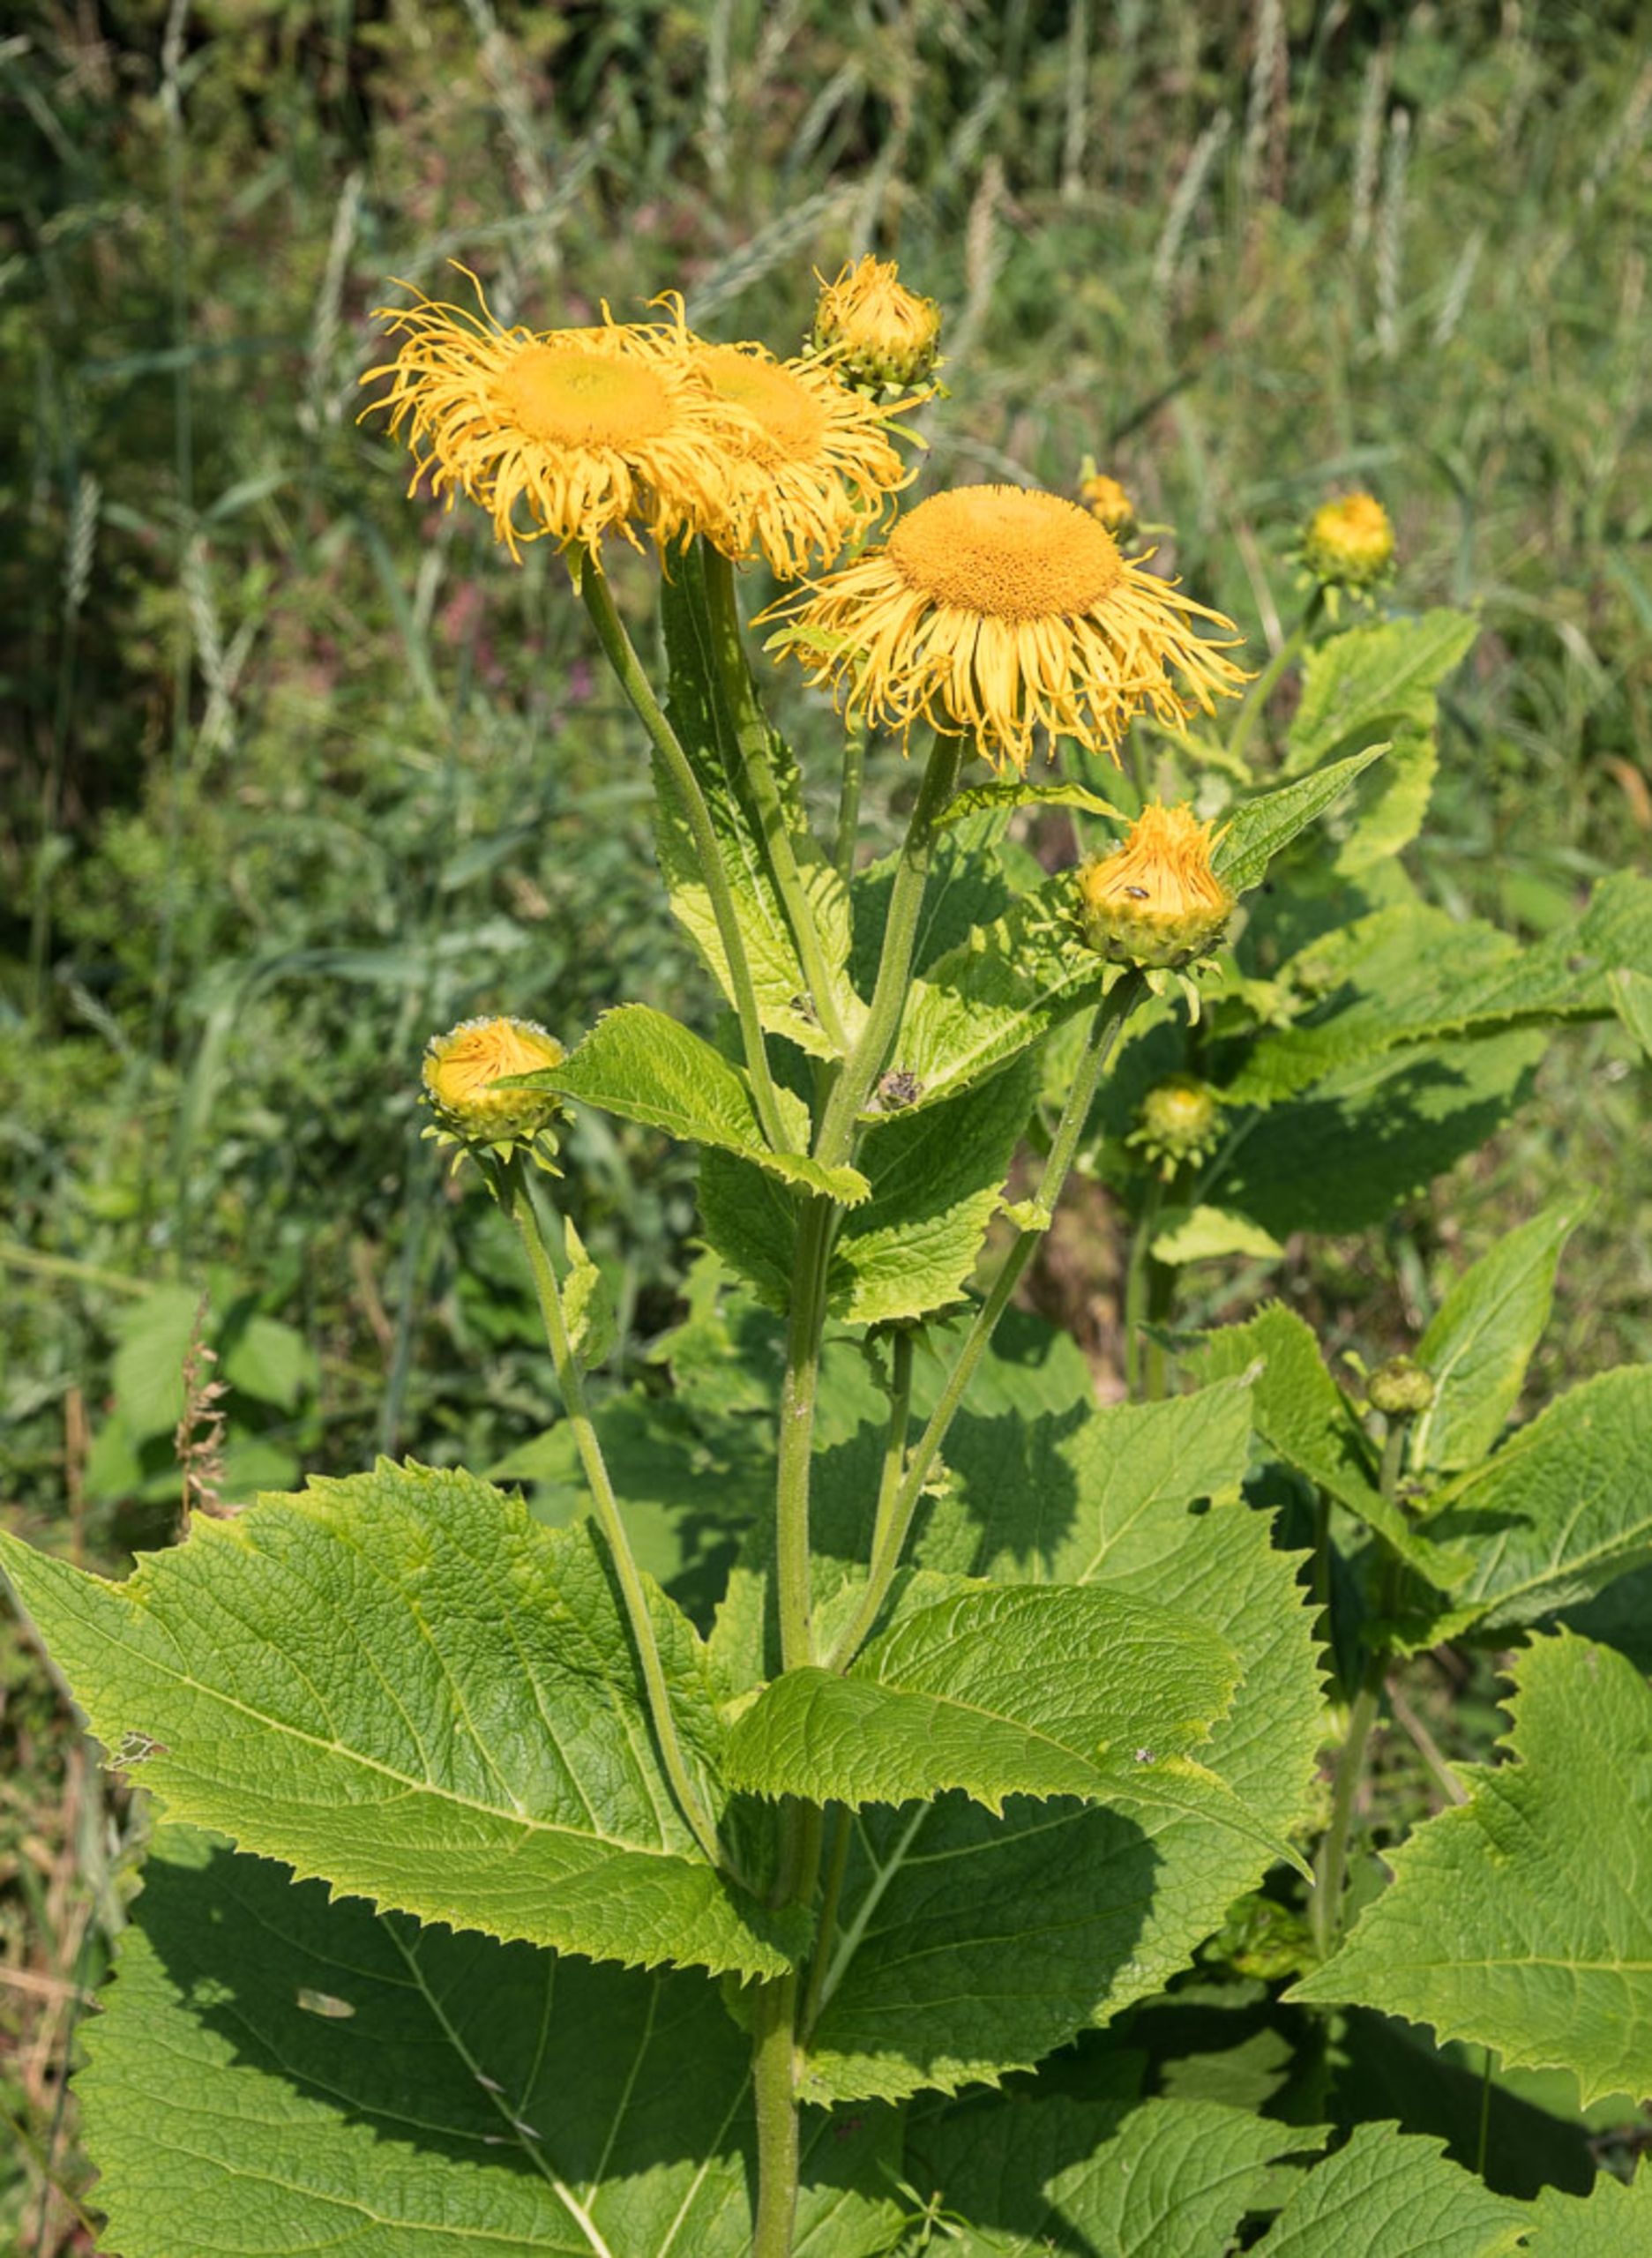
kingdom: Plantae
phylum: Tracheophyta
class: Magnoliopsida
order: Asterales
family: Asteraceae
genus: Telekia
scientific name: Telekia speciosa
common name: Tusindstråle
